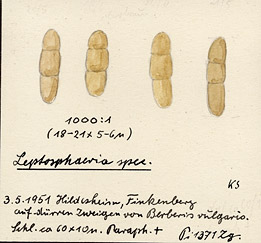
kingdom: Plantae
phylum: Tracheophyta
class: Magnoliopsida
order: Ranunculales
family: Berberidaceae
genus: Berberis
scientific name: Berberis vulgaris
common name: Barberry
